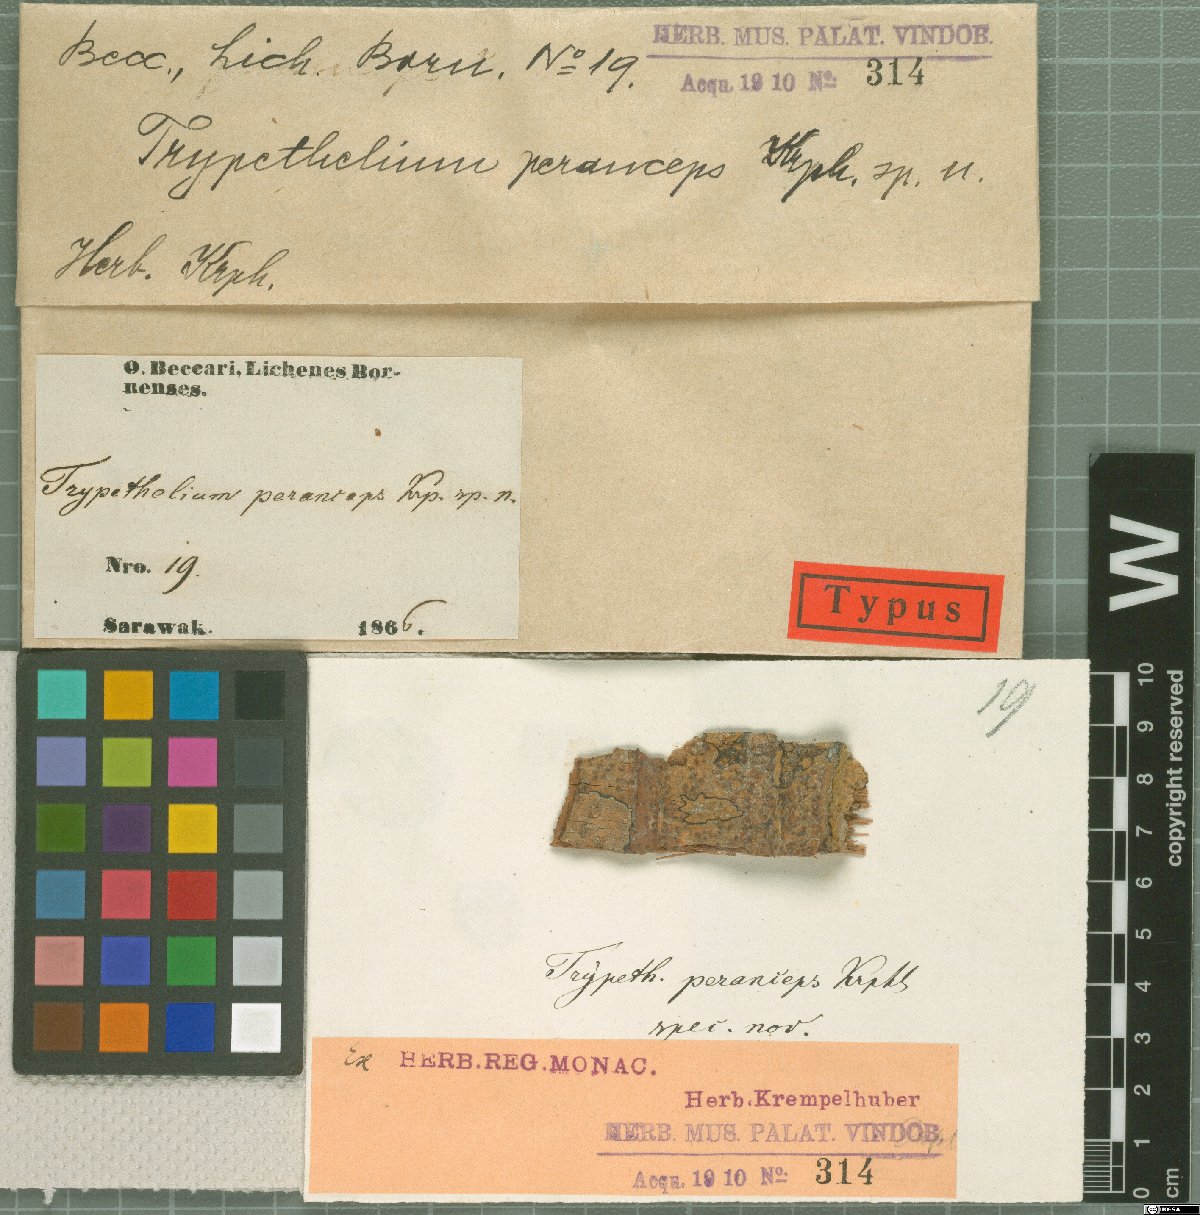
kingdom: Fungi
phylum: Ascomycota
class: Dothideomycetes
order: Trypetheliales
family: Trypetheliaceae
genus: Astrothelium
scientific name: Astrothelium peranceps
